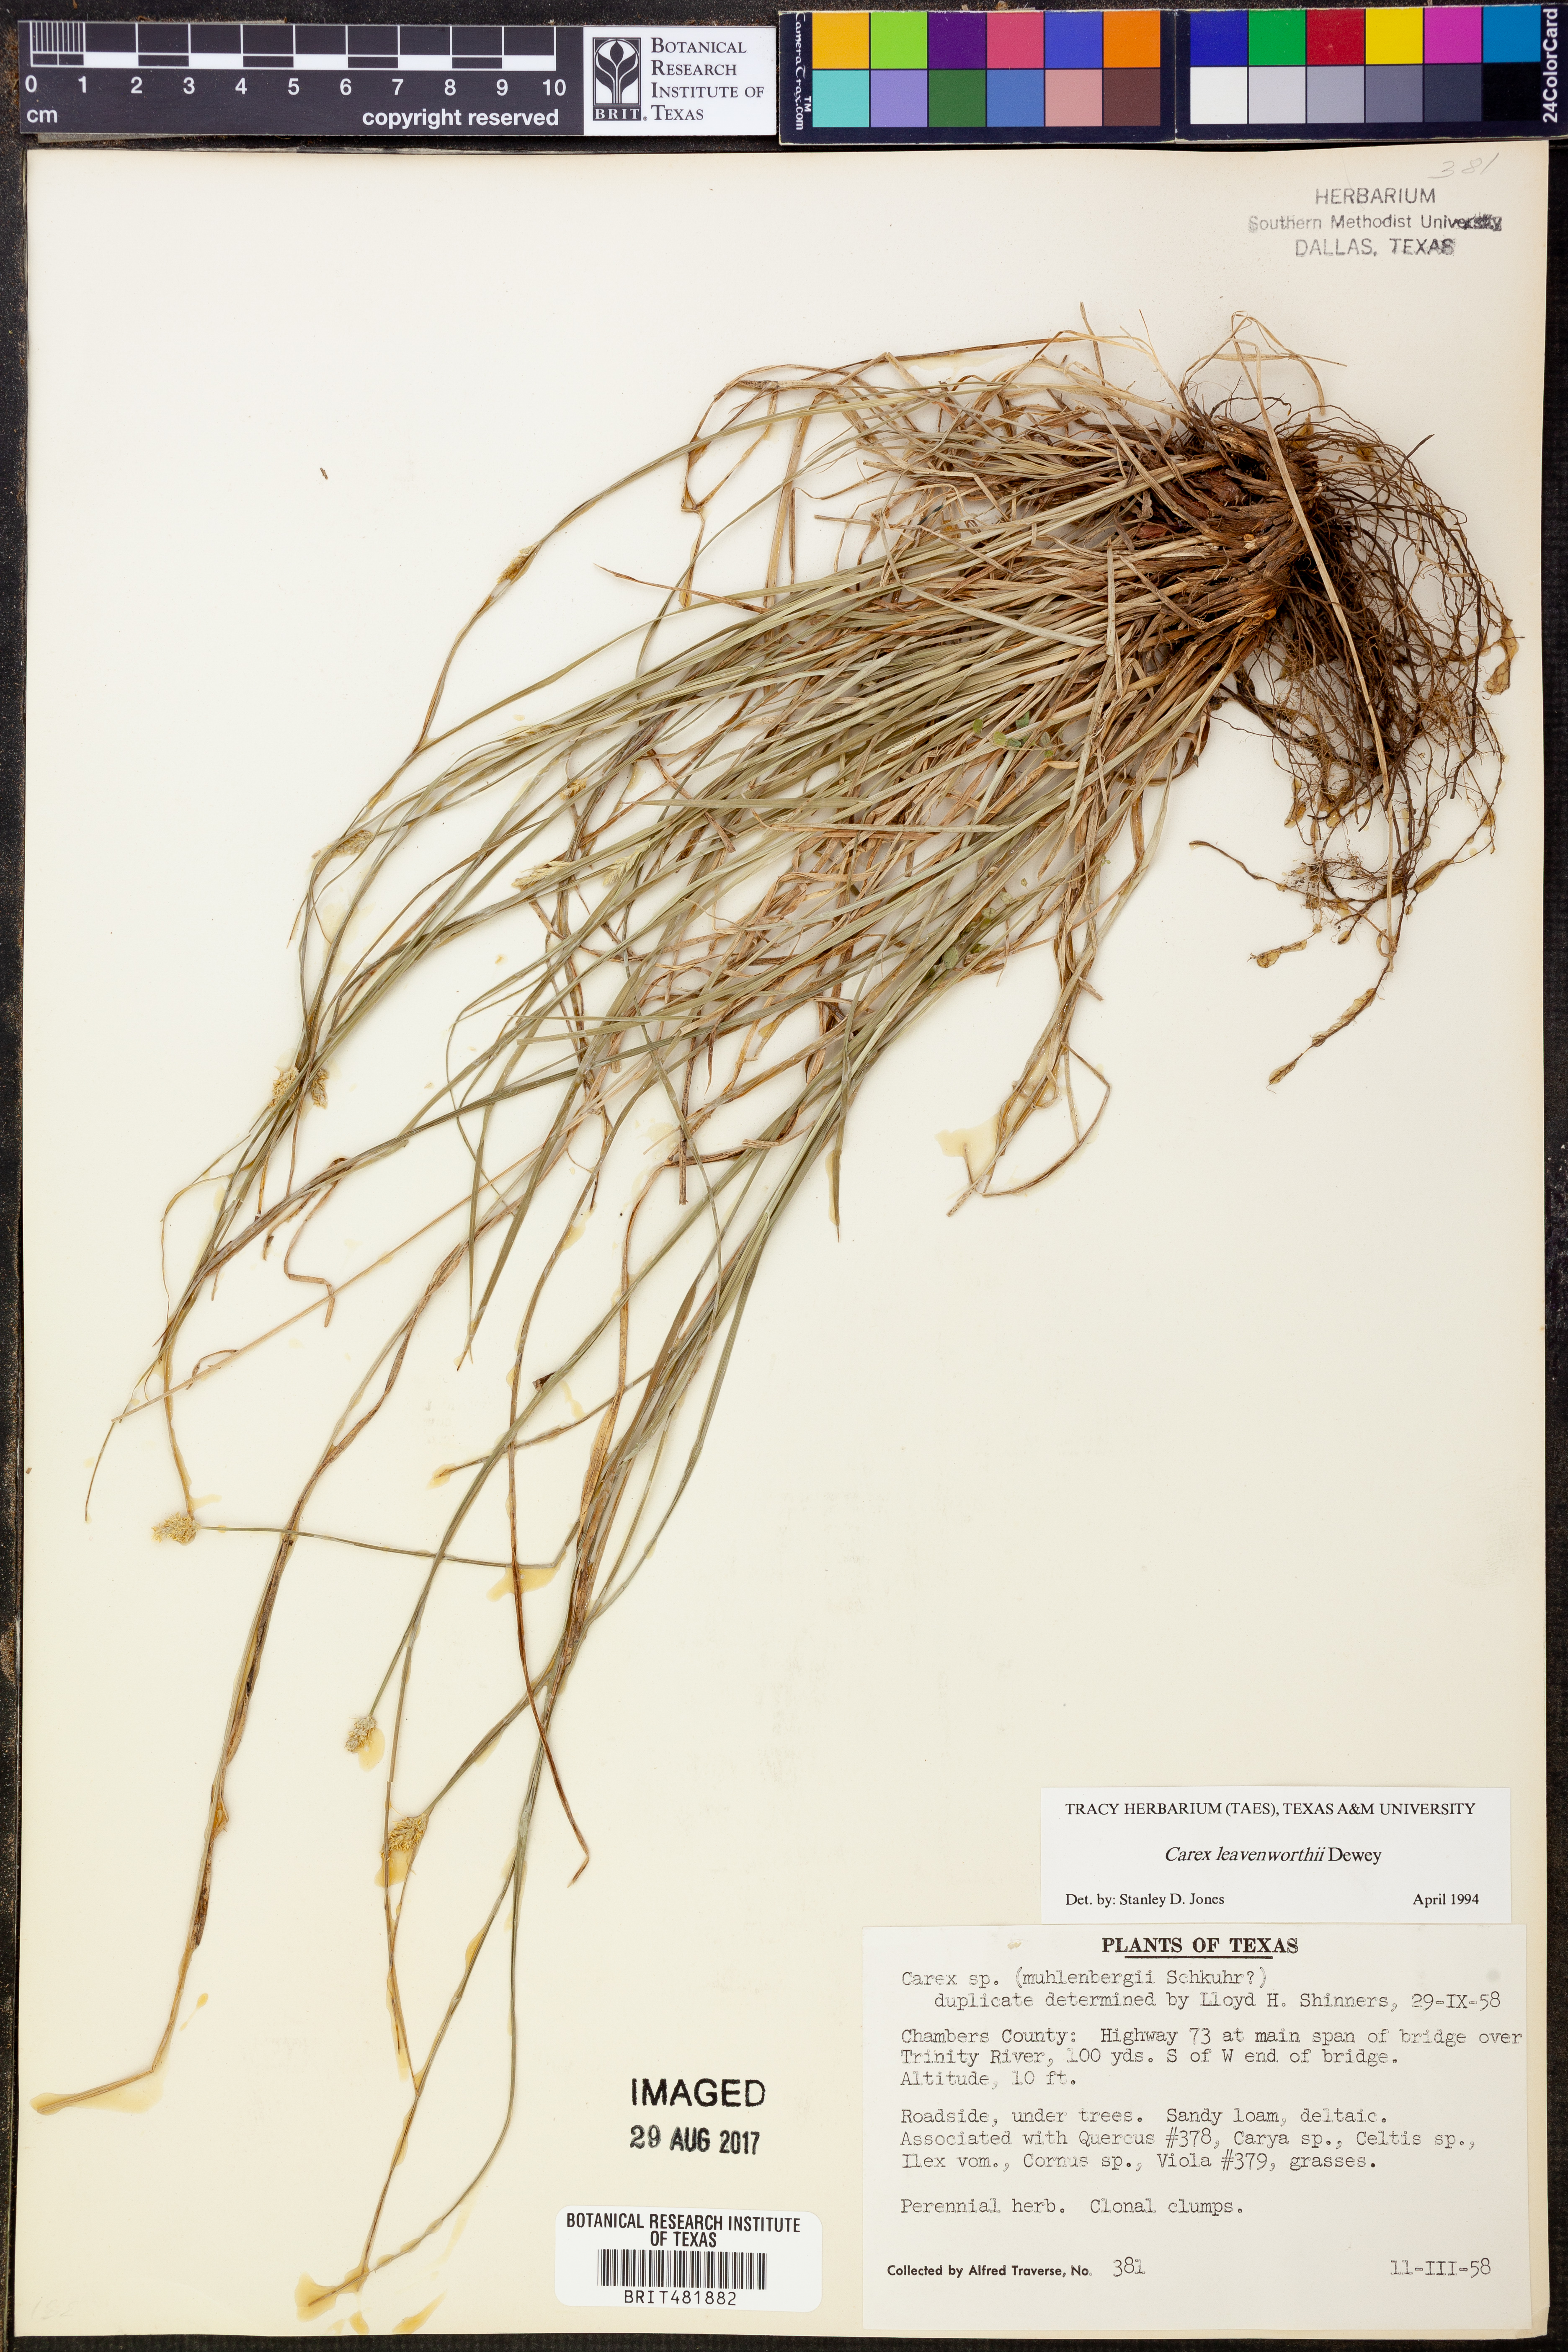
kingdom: Plantae
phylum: Tracheophyta
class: Liliopsida
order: Poales
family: Cyperaceae
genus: Carex
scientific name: Carex leavenworthii
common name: Leavenworth's bracted sedge
